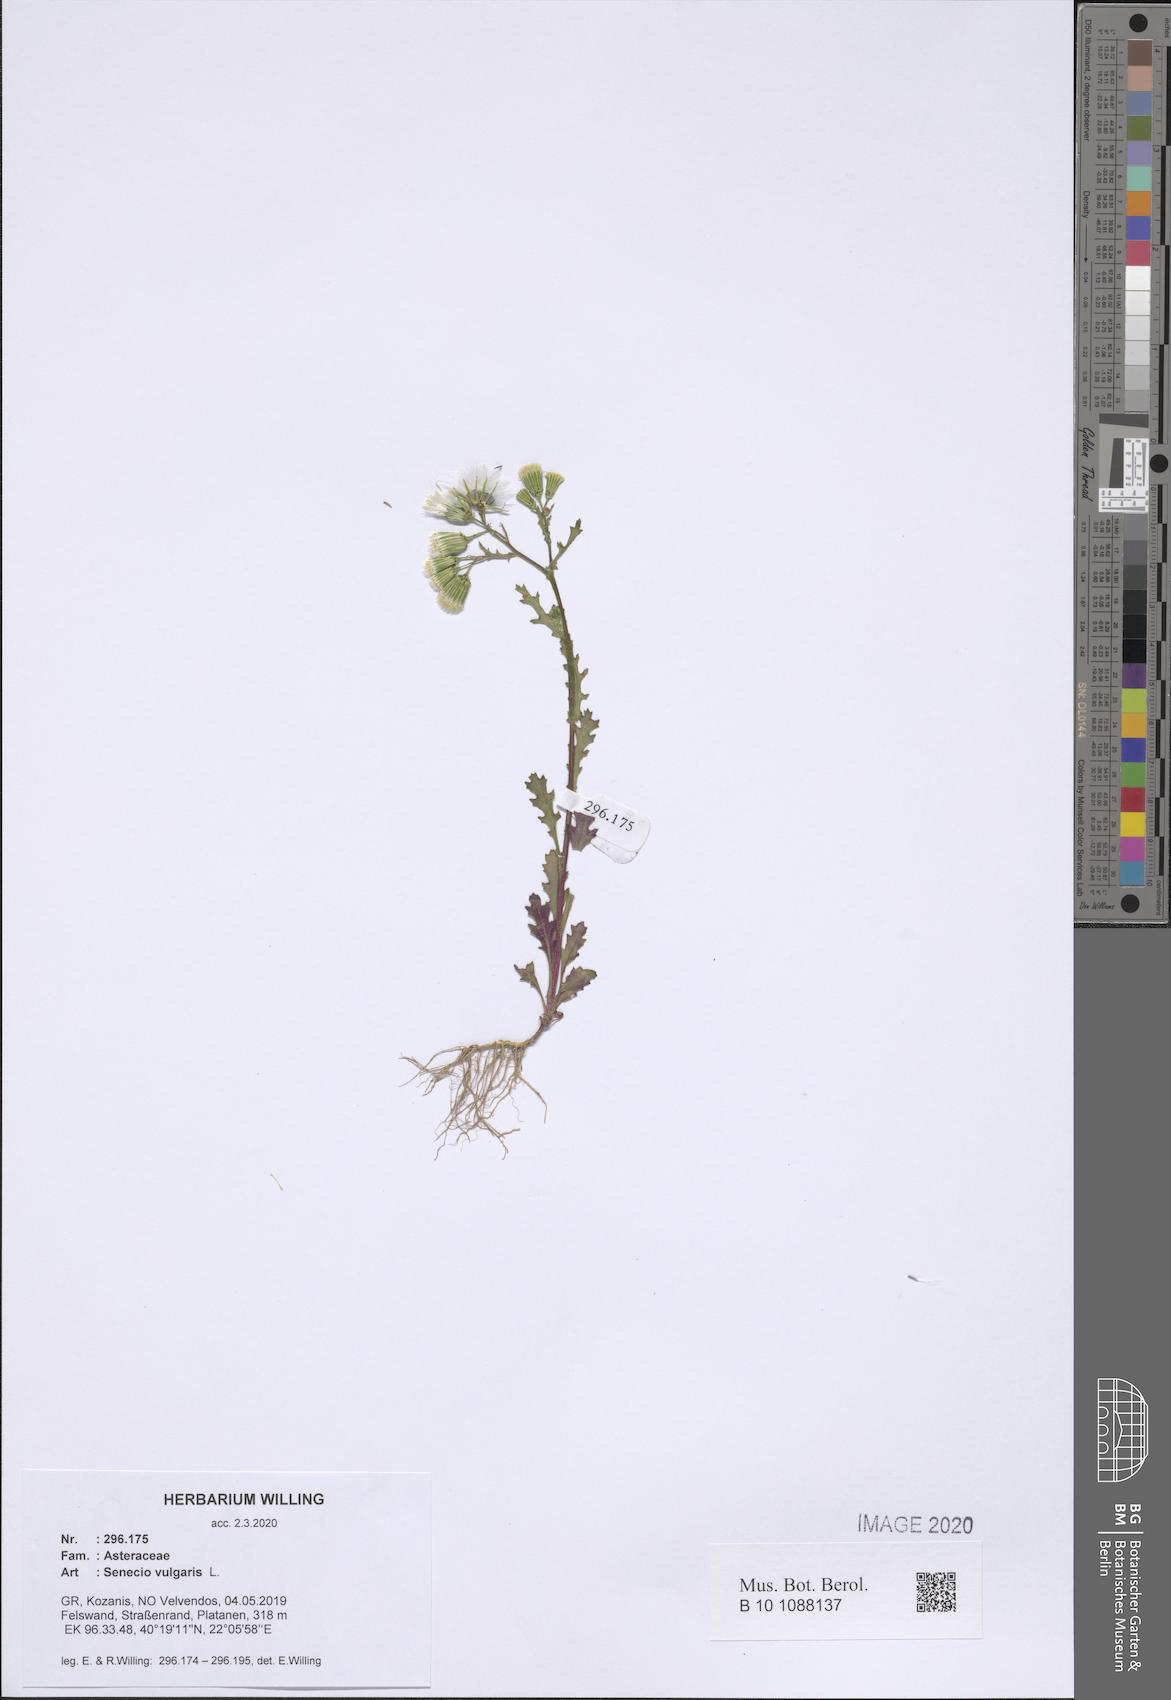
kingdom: Plantae
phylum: Tracheophyta
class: Magnoliopsida
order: Asterales
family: Asteraceae
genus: Senecio
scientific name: Senecio vulgaris
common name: Old-man-in-the-spring
